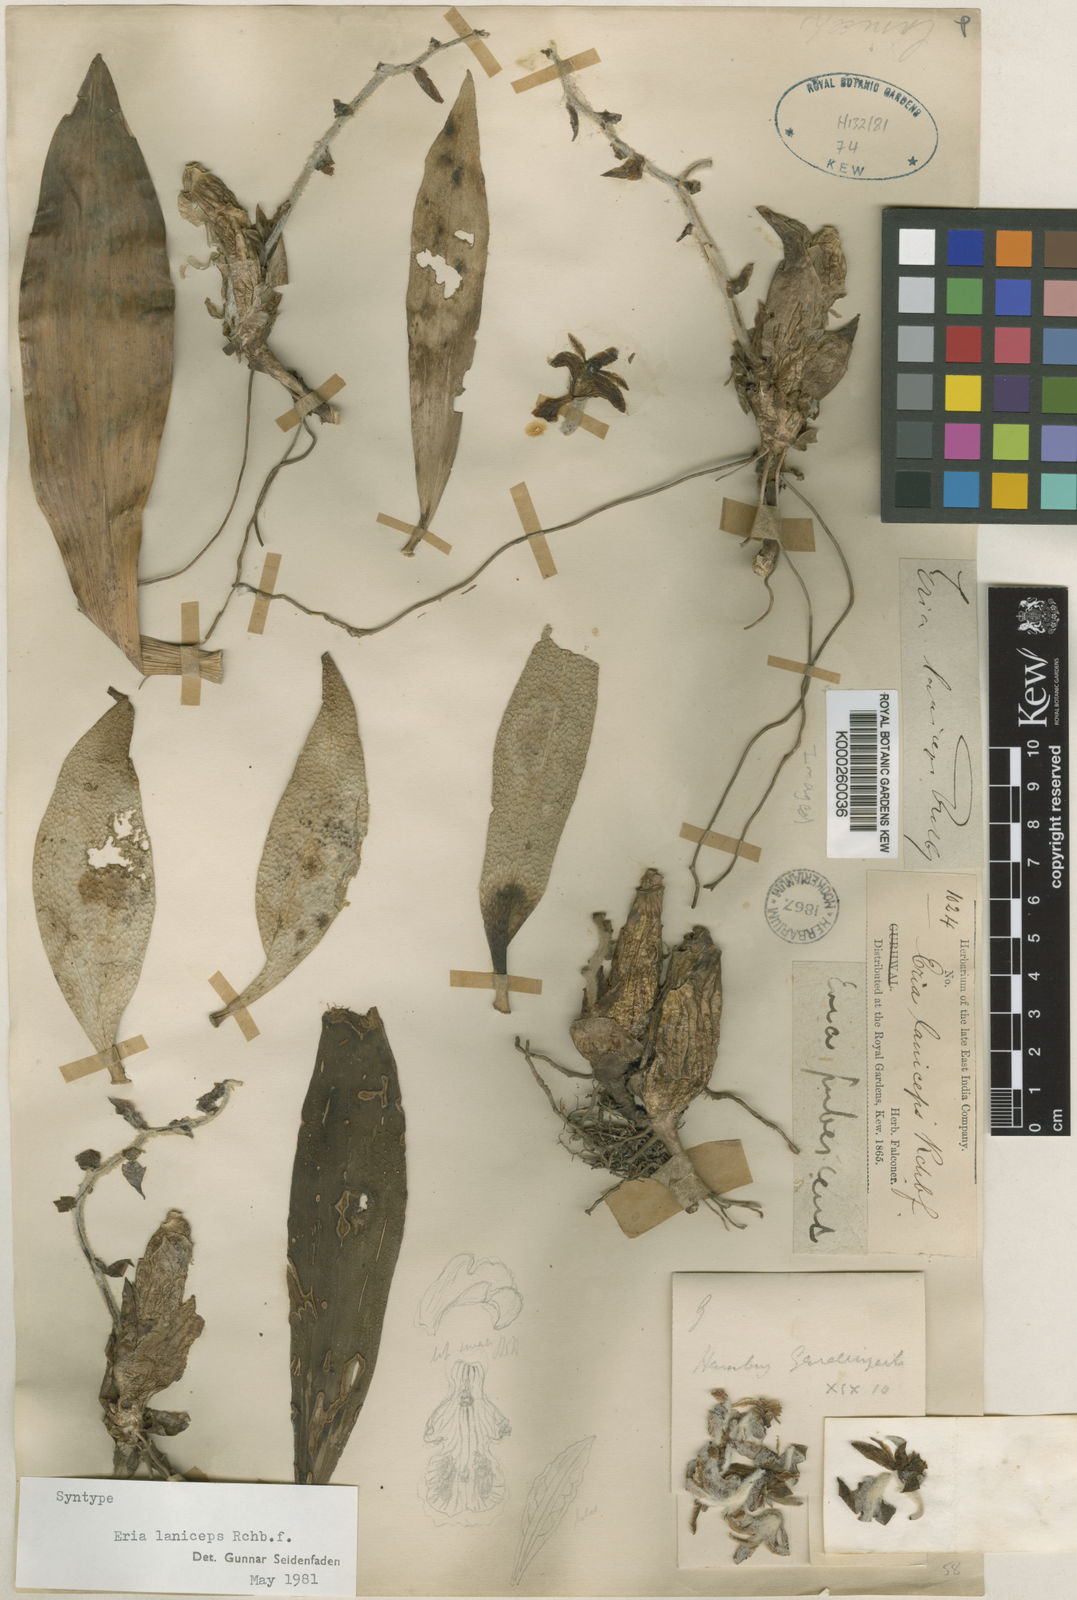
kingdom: Plantae
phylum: Tracheophyta
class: Liliopsida
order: Asparagales
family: Orchidaceae
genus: Dendrolirium
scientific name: Dendrolirium lasiopetalum
